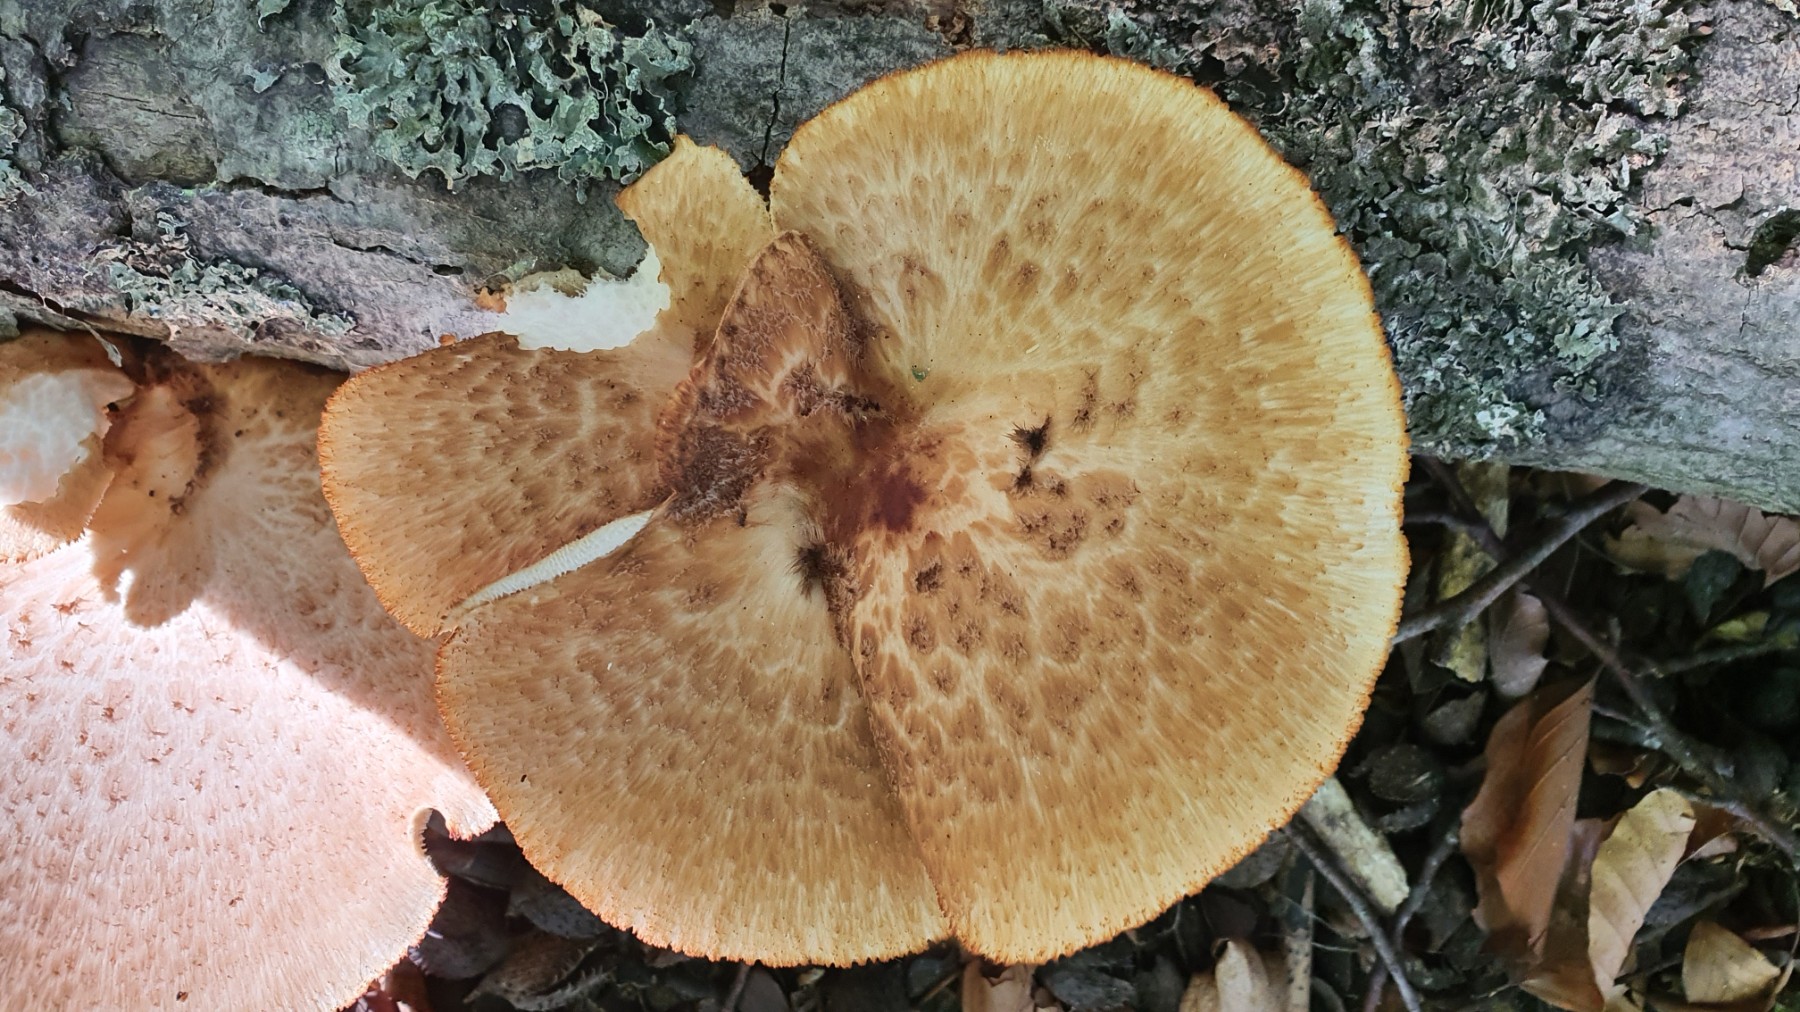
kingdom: Fungi
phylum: Basidiomycota
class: Agaricomycetes
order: Polyporales
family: Polyporaceae
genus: Polyporus
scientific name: Polyporus tuberaster
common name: knoldet stilkporesvamp
